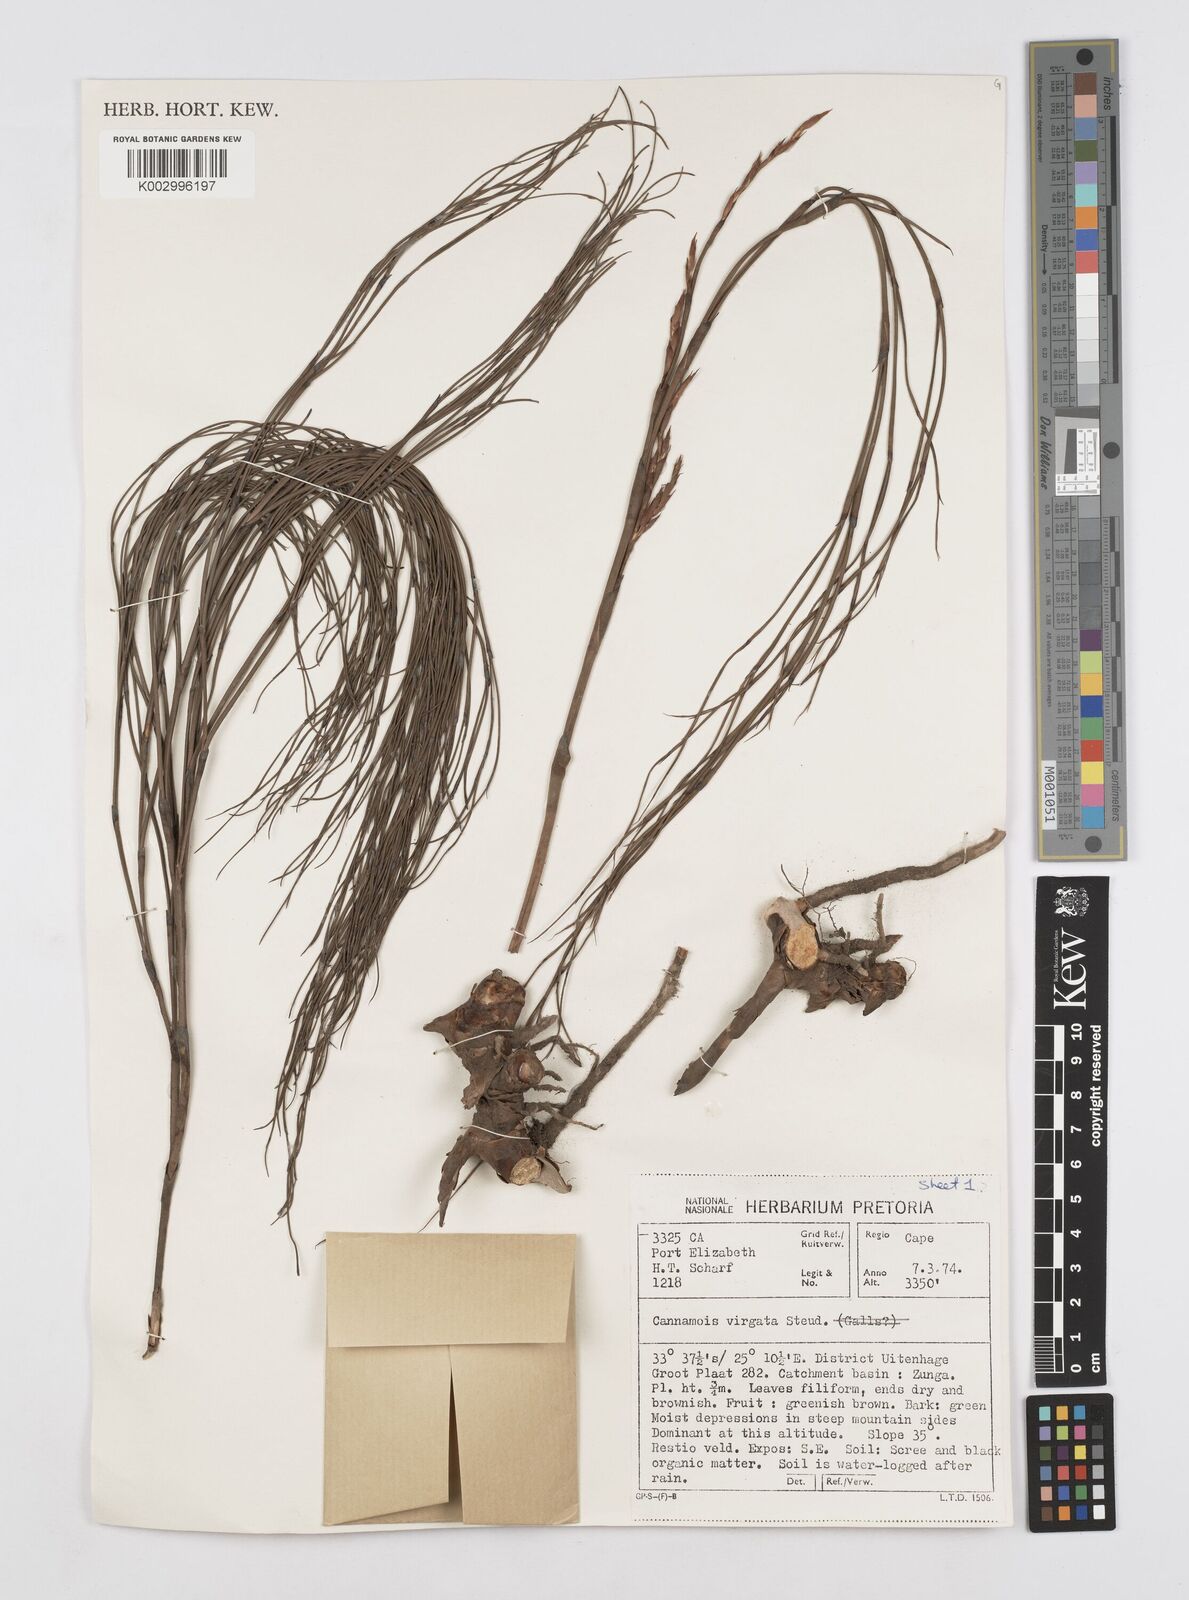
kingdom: Plantae
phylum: Tracheophyta
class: Liliopsida
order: Poales
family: Restionaceae
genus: Cannomois
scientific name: Cannomois virgata
